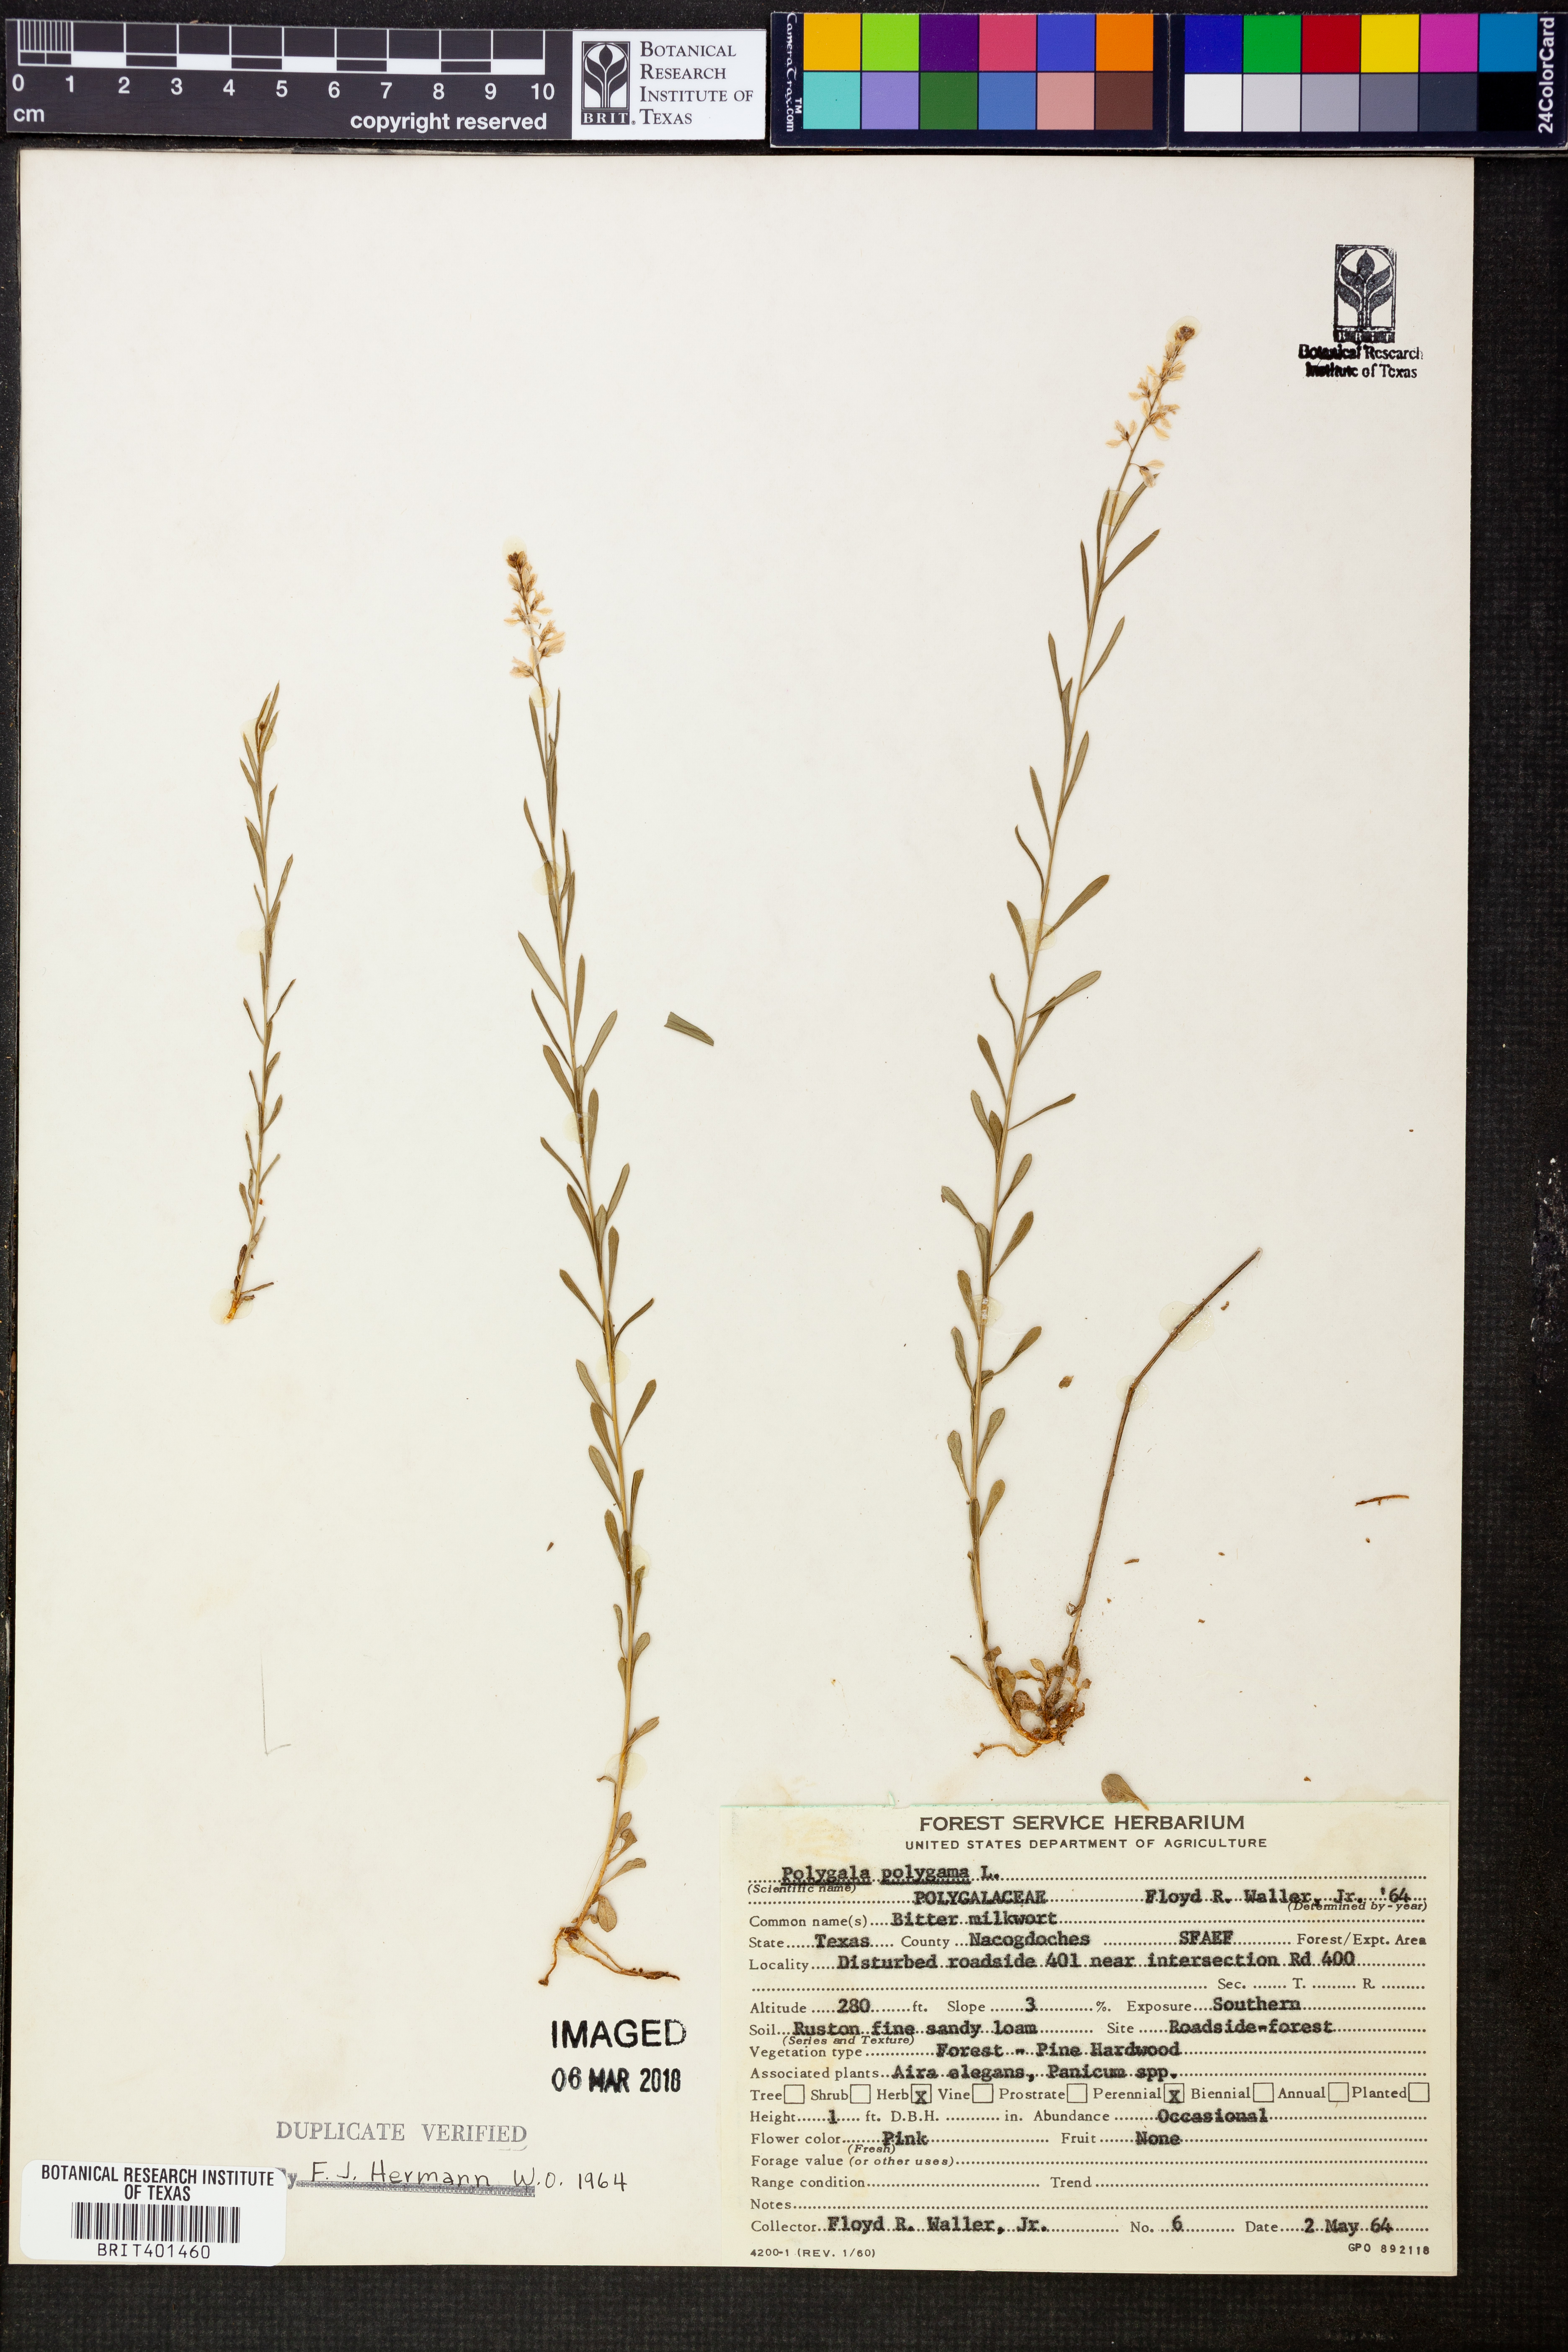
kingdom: Plantae
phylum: Tracheophyta
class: Magnoliopsida
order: Fabales
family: Polygalaceae
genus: Polygala
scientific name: Polygala polygama
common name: Bitter milkwort
